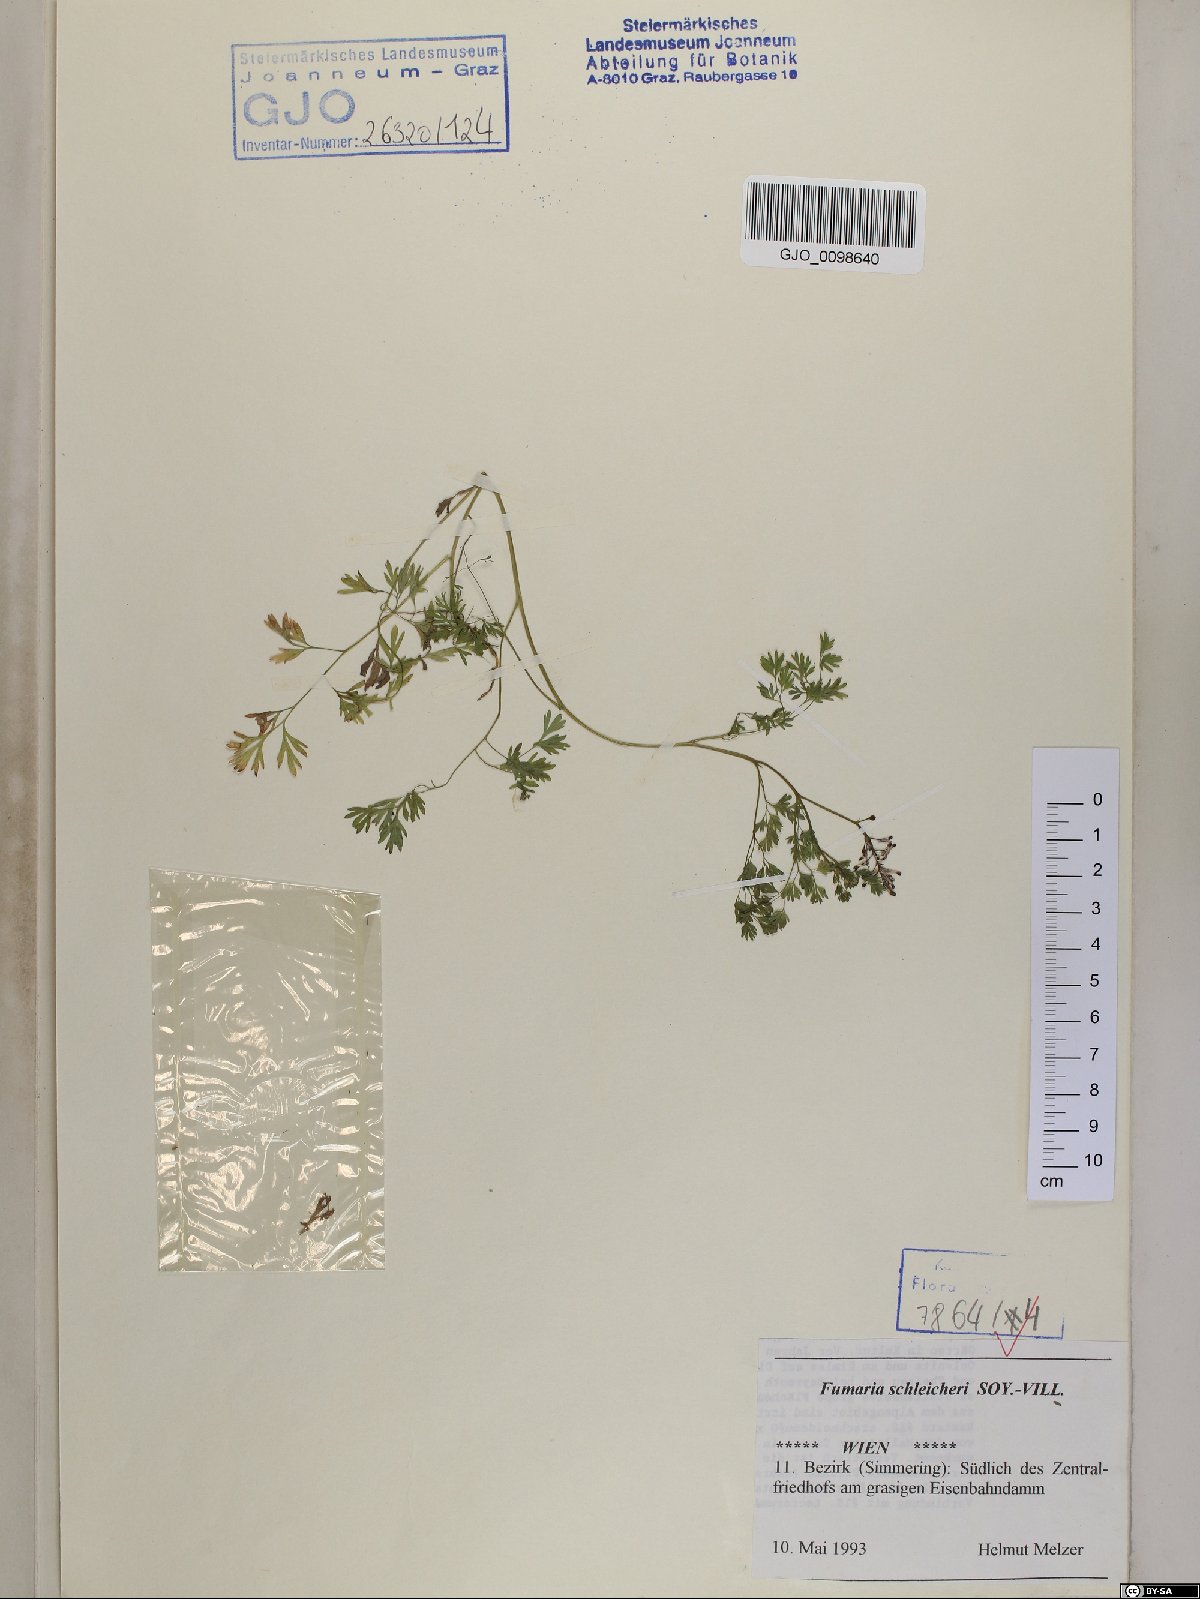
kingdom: Plantae
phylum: Tracheophyta
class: Magnoliopsida
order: Ranunculales
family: Papaveraceae
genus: Fumaria
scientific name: Fumaria schleicheri
